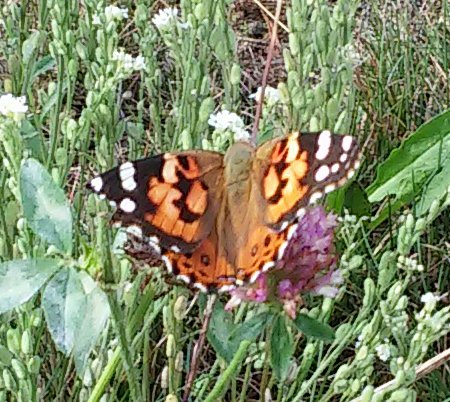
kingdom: Animalia
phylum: Arthropoda
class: Insecta
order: Lepidoptera
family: Nymphalidae
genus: Vanessa
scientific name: Vanessa cardui
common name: Painted Lady
